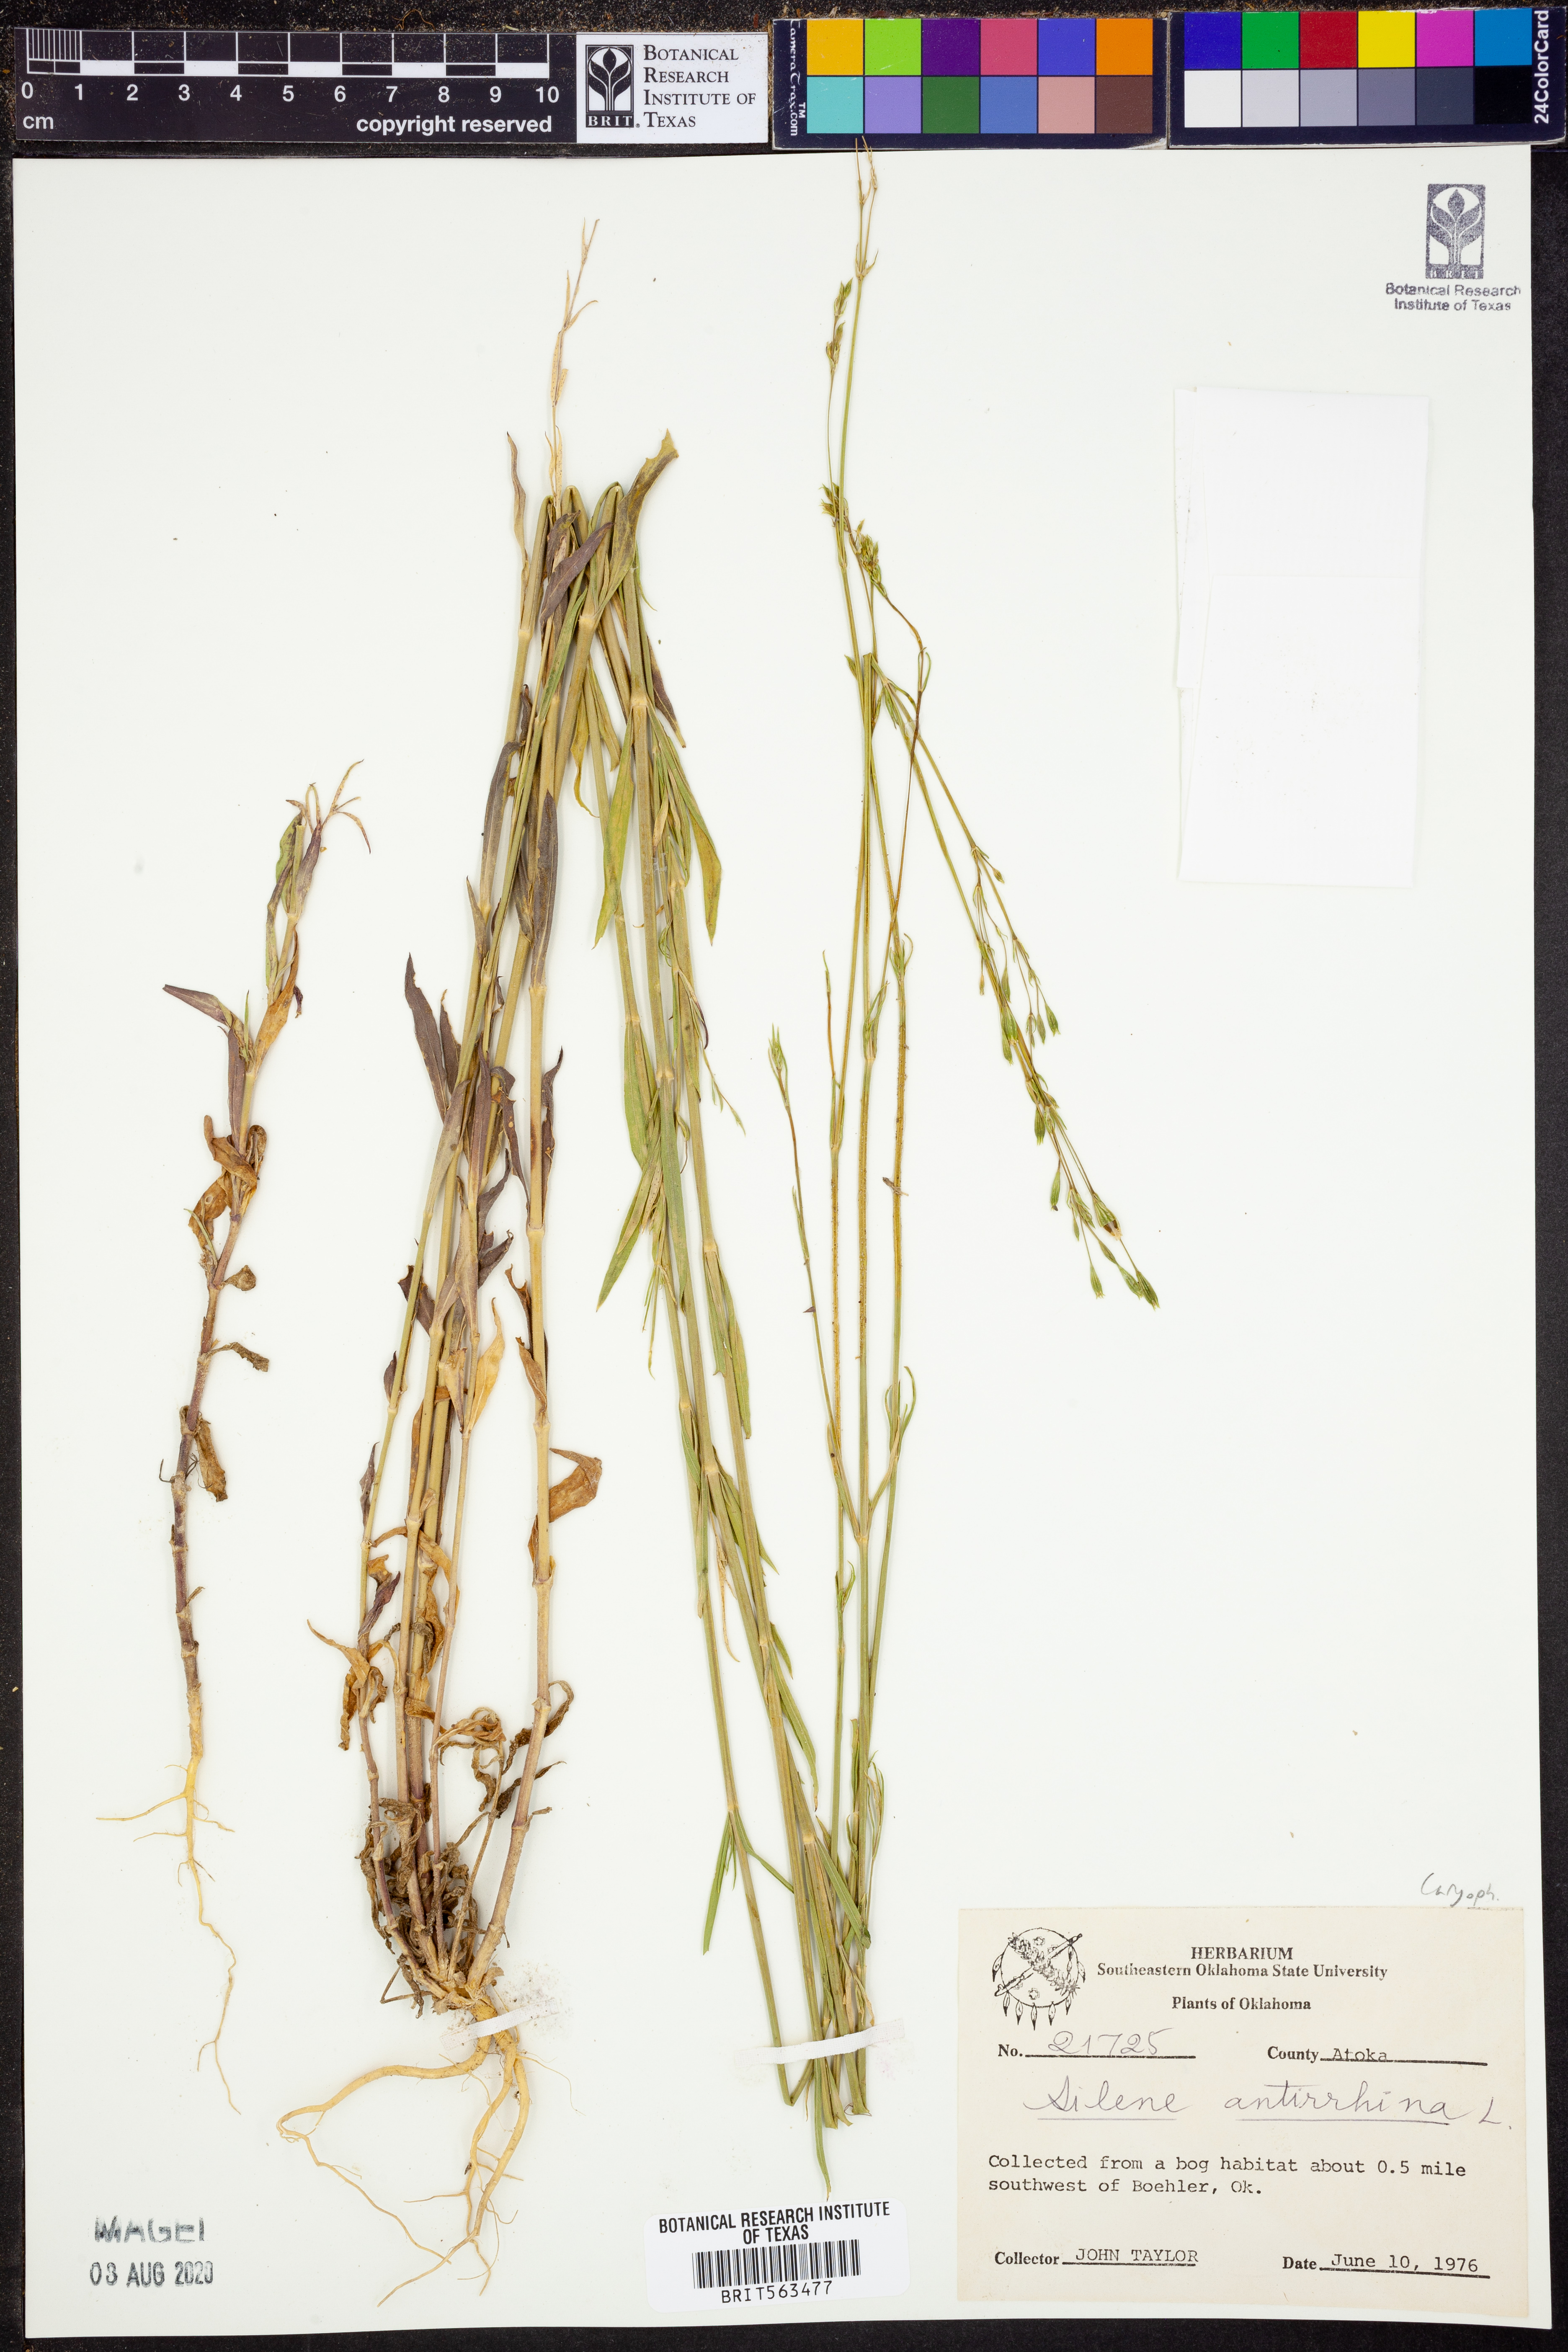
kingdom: Plantae
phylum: Tracheophyta
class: Magnoliopsida
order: Caryophyllales
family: Caryophyllaceae
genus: Silene
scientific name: Silene antirrhina
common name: Sleepy catchfly
